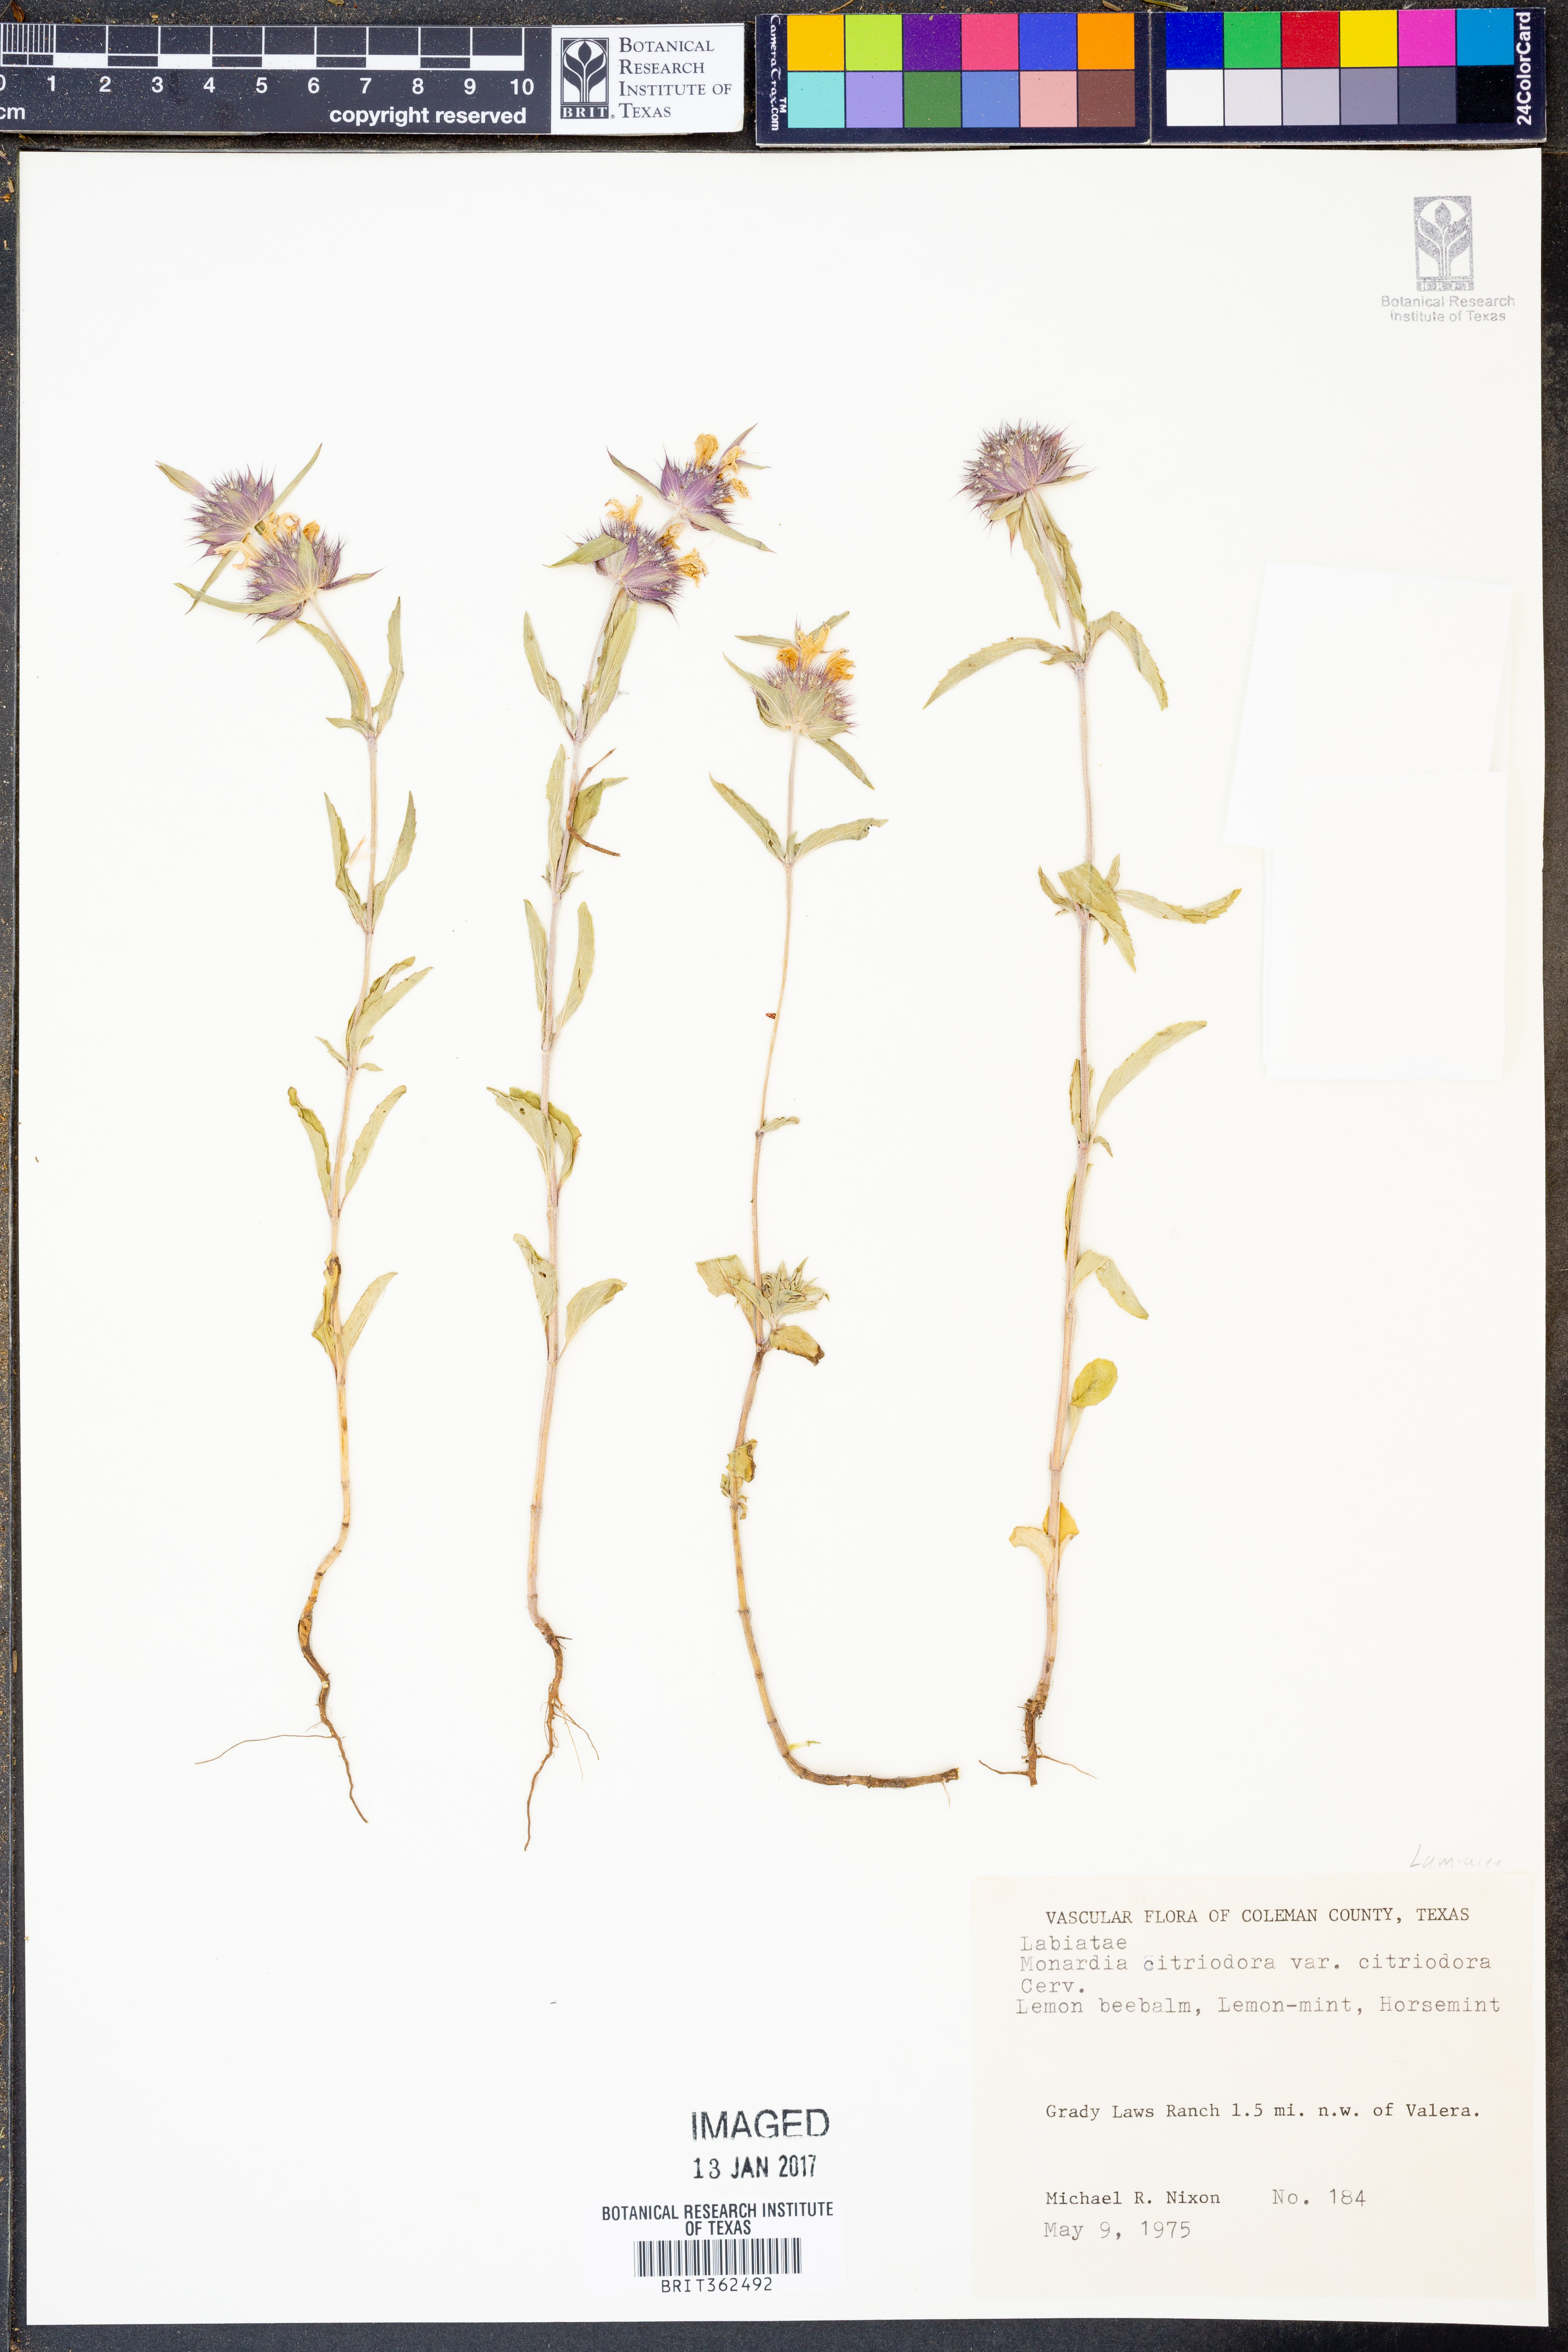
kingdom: Plantae
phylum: Tracheophyta
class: Magnoliopsida
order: Lamiales
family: Lamiaceae
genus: Monarda
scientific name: Monarda citriodora
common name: Lemon beebalm
